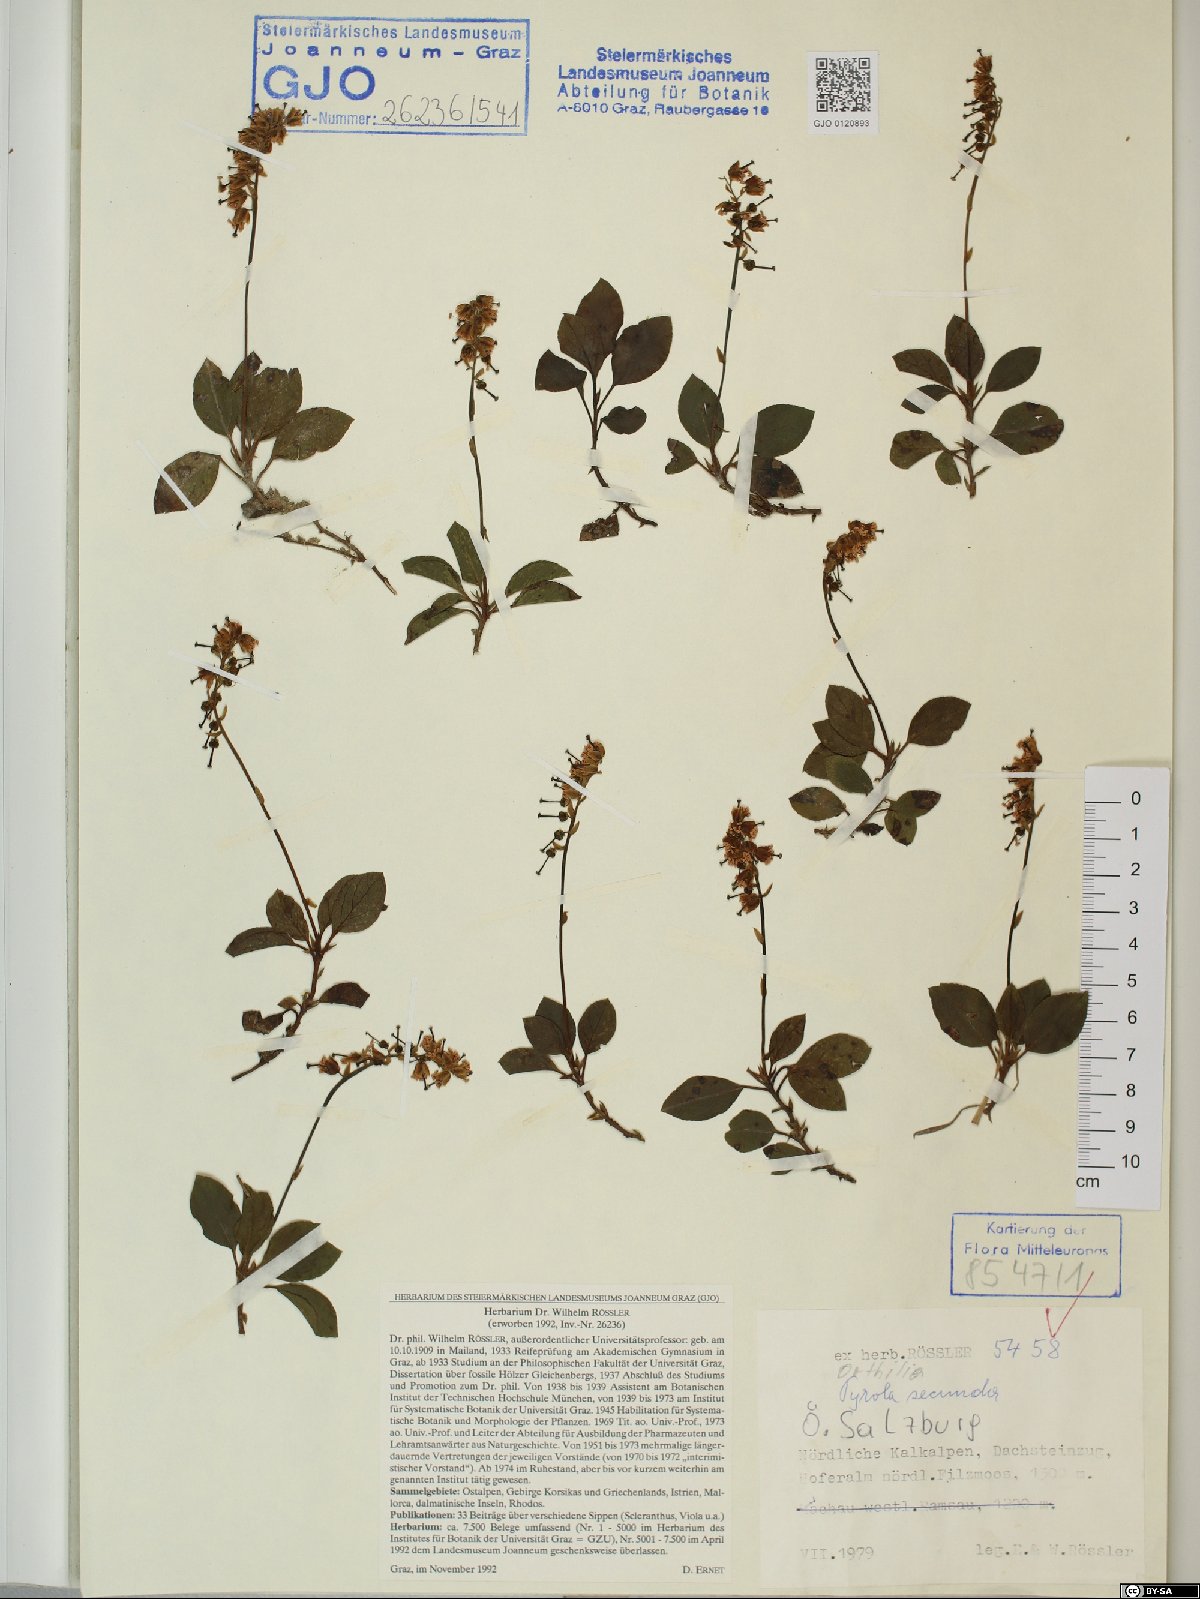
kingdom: Plantae
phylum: Tracheophyta
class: Magnoliopsida
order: Ericales
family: Ericaceae
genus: Orthilia
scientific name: Orthilia secunda
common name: One-sided orthilia
